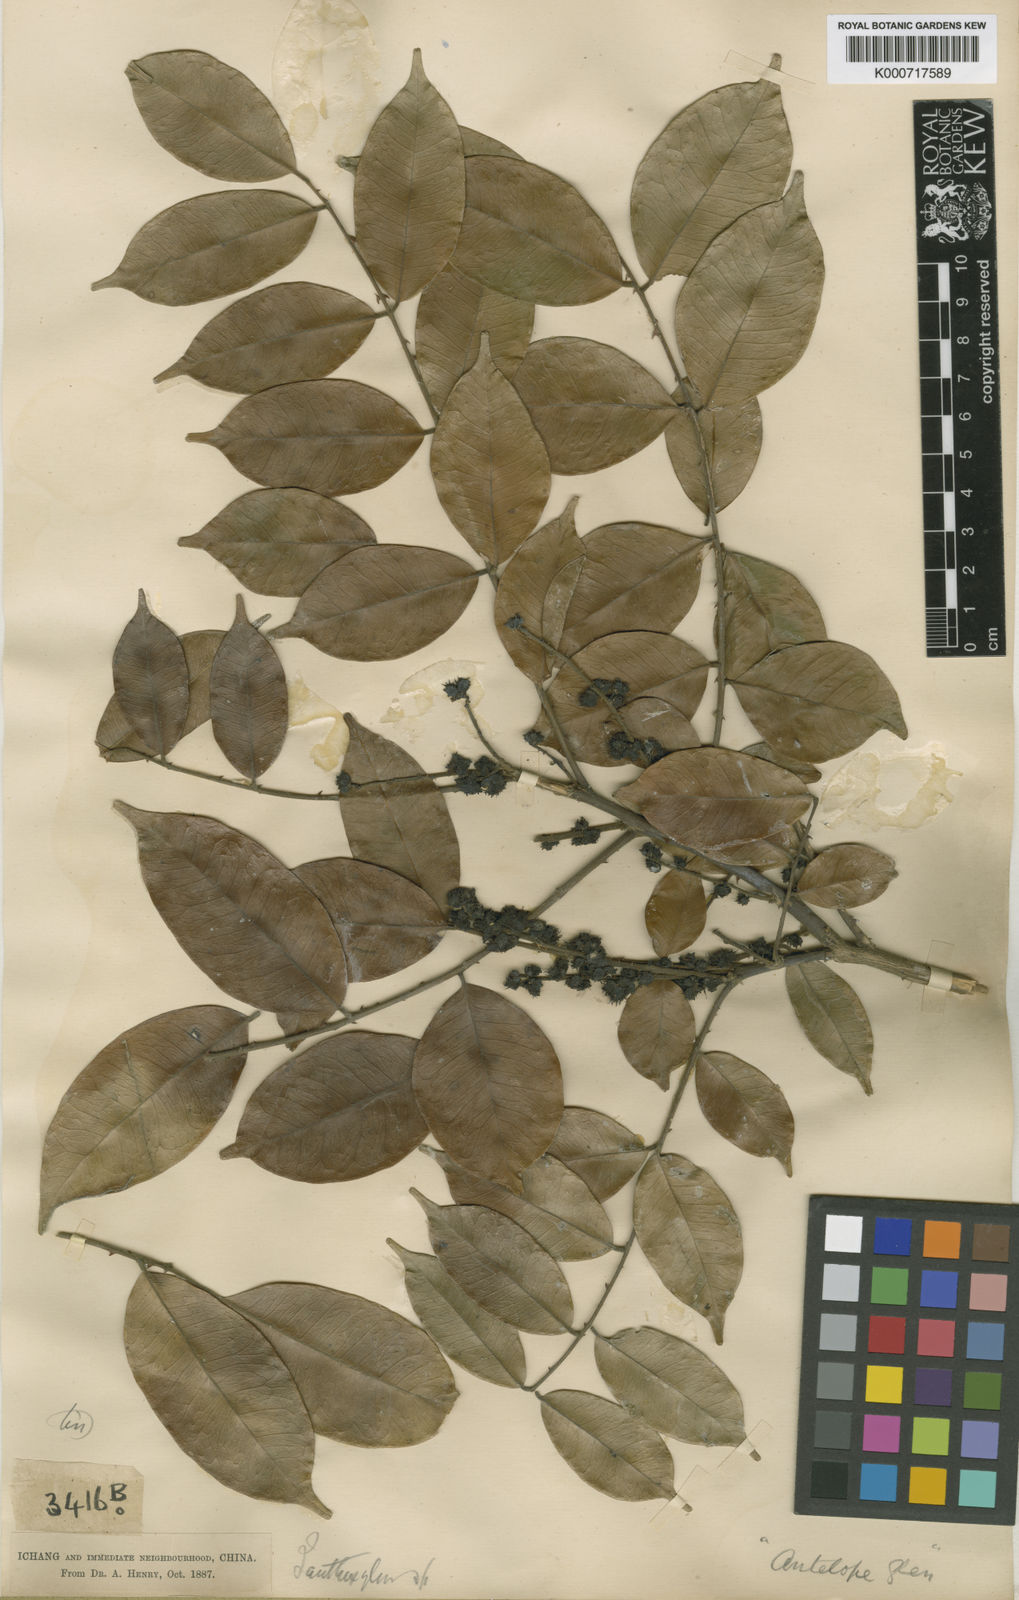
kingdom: Plantae
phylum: Tracheophyta
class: Magnoliopsida
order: Sapindales
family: Rutaceae
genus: Zanthoxylum
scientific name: Zanthoxylum echinocarpum
